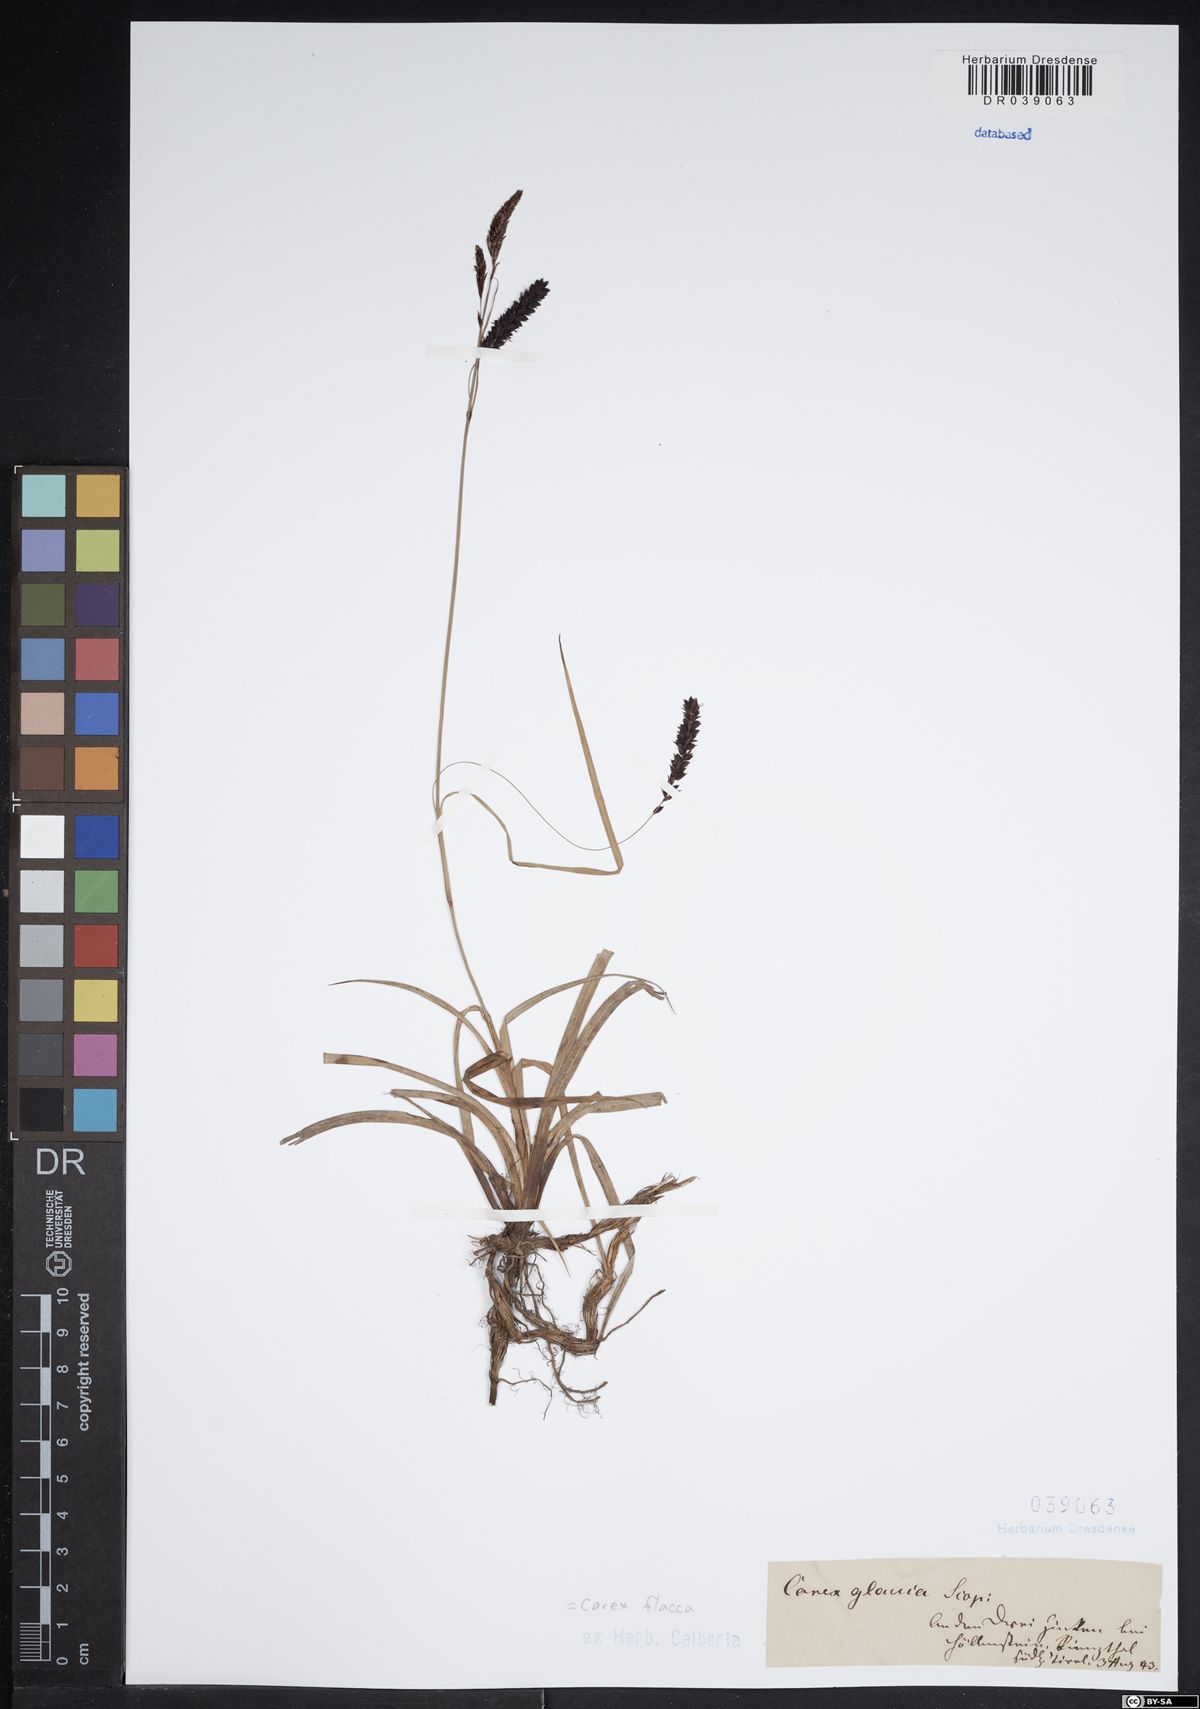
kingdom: Plantae
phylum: Tracheophyta
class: Liliopsida
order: Poales
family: Cyperaceae
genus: Carex
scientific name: Carex flacca
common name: Glaucous sedge
